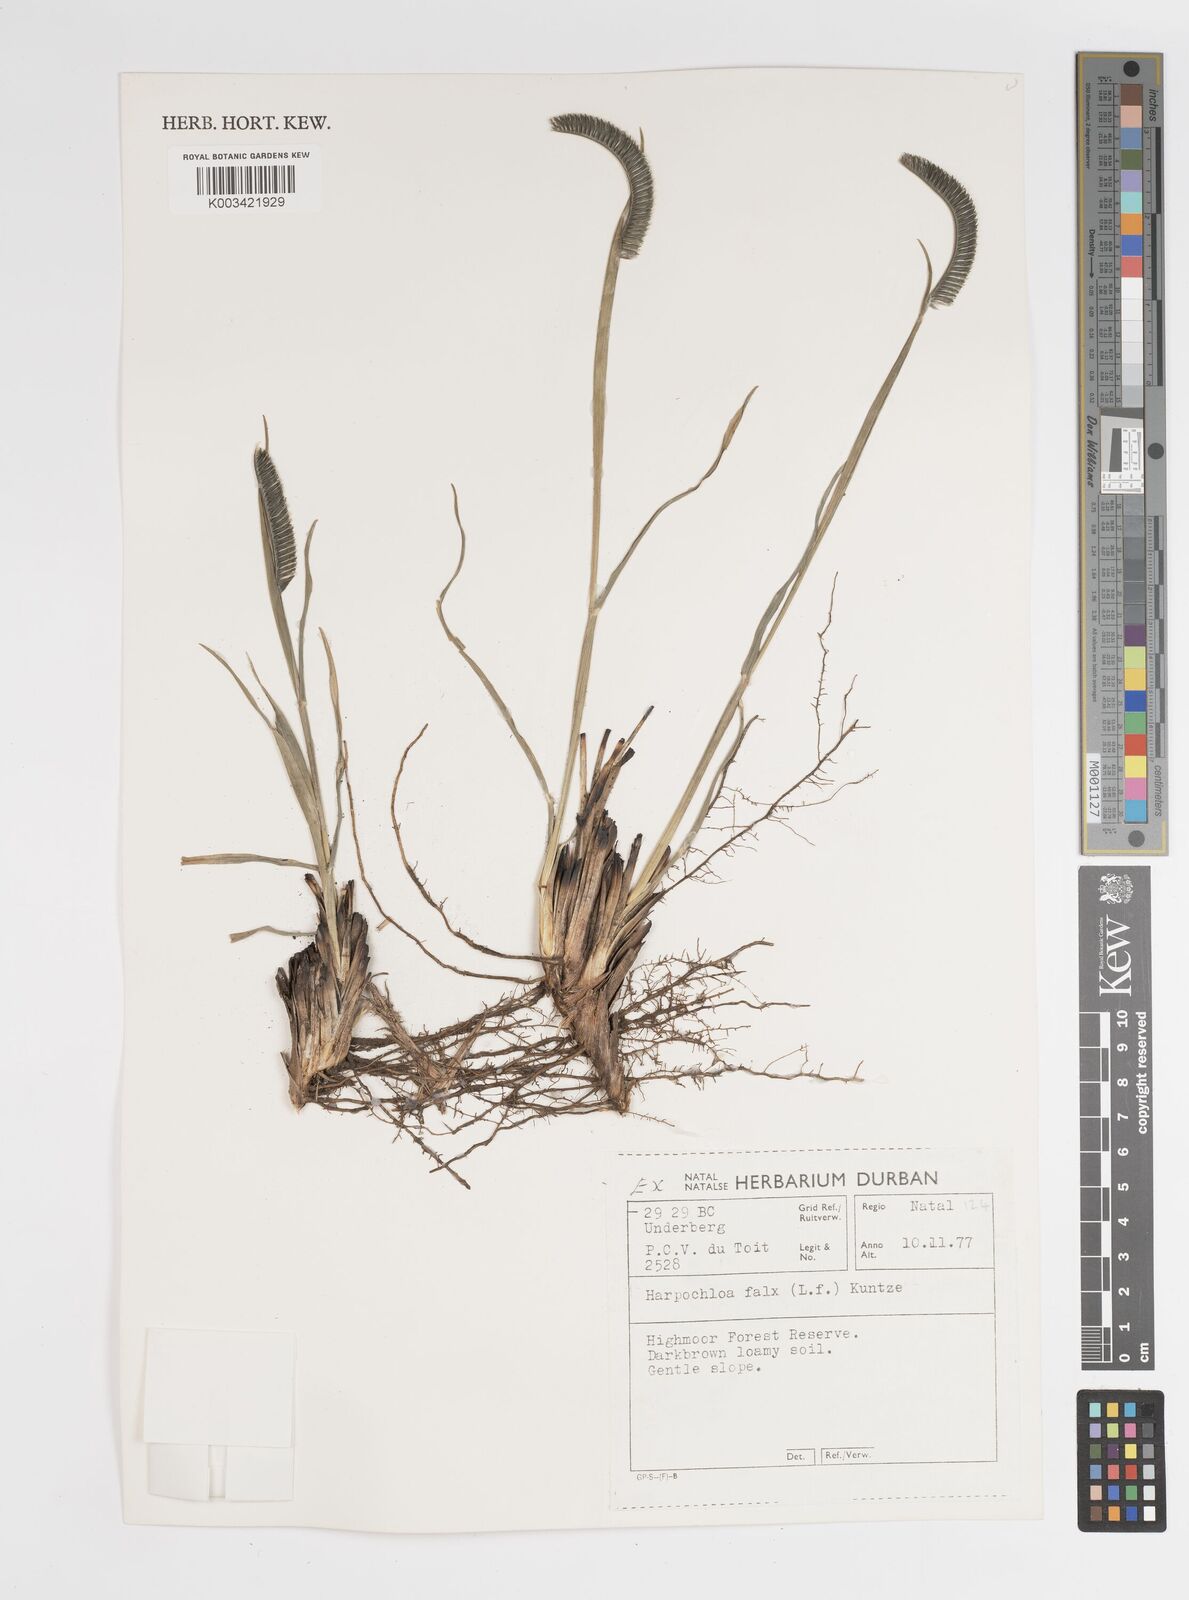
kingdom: Plantae
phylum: Tracheophyta
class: Liliopsida
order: Poales
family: Poaceae
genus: Harpochloa
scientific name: Harpochloa falx
